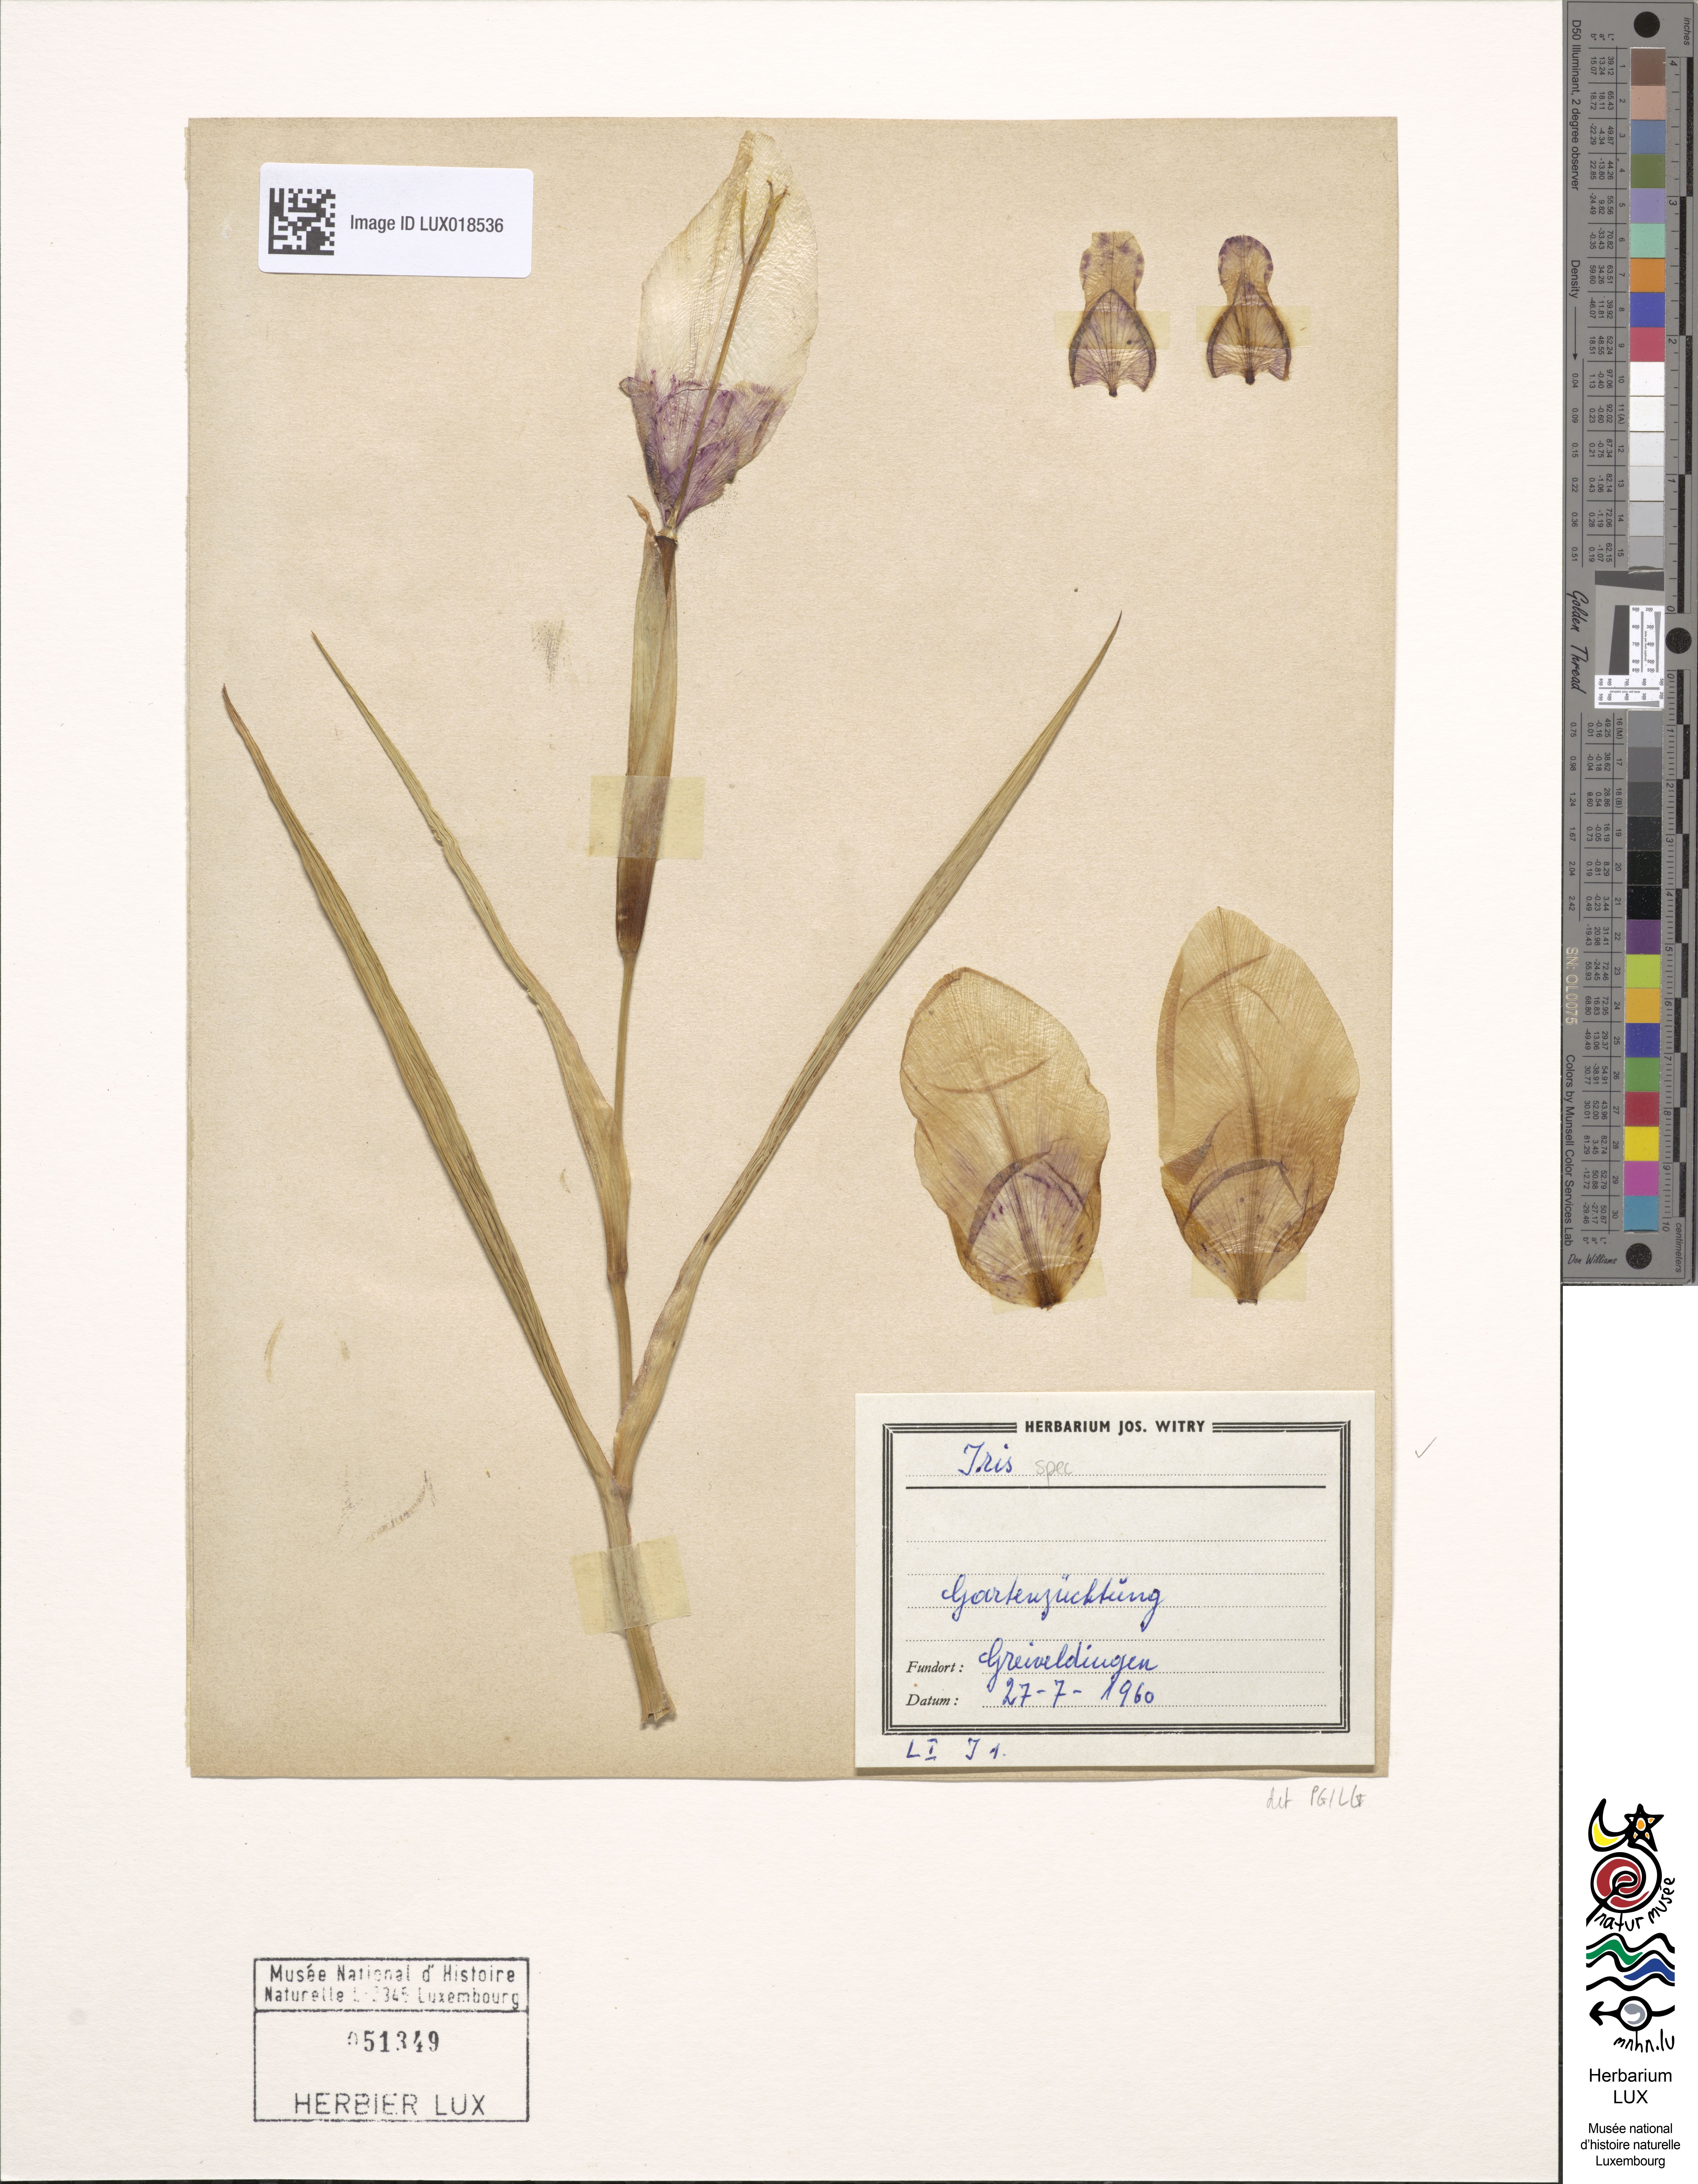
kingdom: Animalia
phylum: Arthropoda
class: Insecta
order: Coleoptera
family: Cerambycidae
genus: Itis
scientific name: Itis
